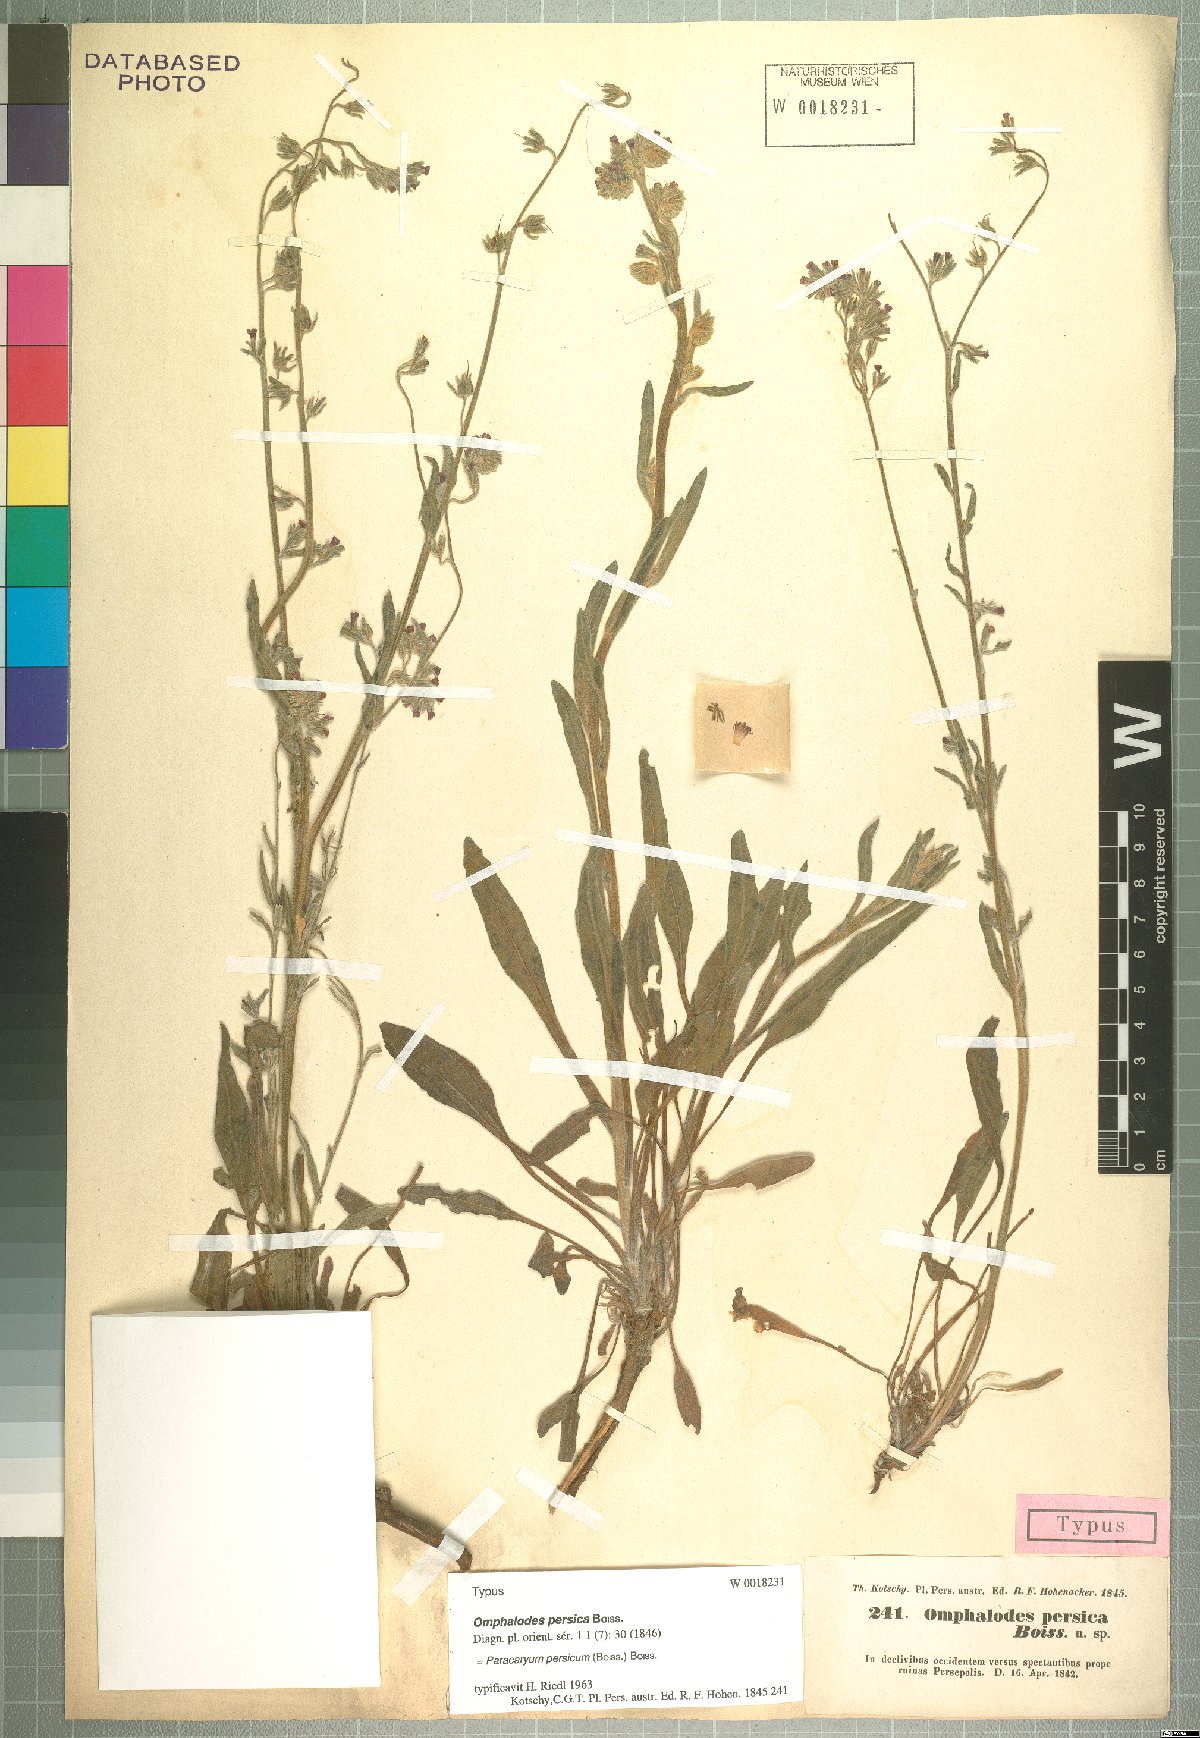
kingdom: Plantae
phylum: Tracheophyta
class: Magnoliopsida
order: Boraginales
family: Boraginaceae
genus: Paracaryum
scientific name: Paracaryum persicum
